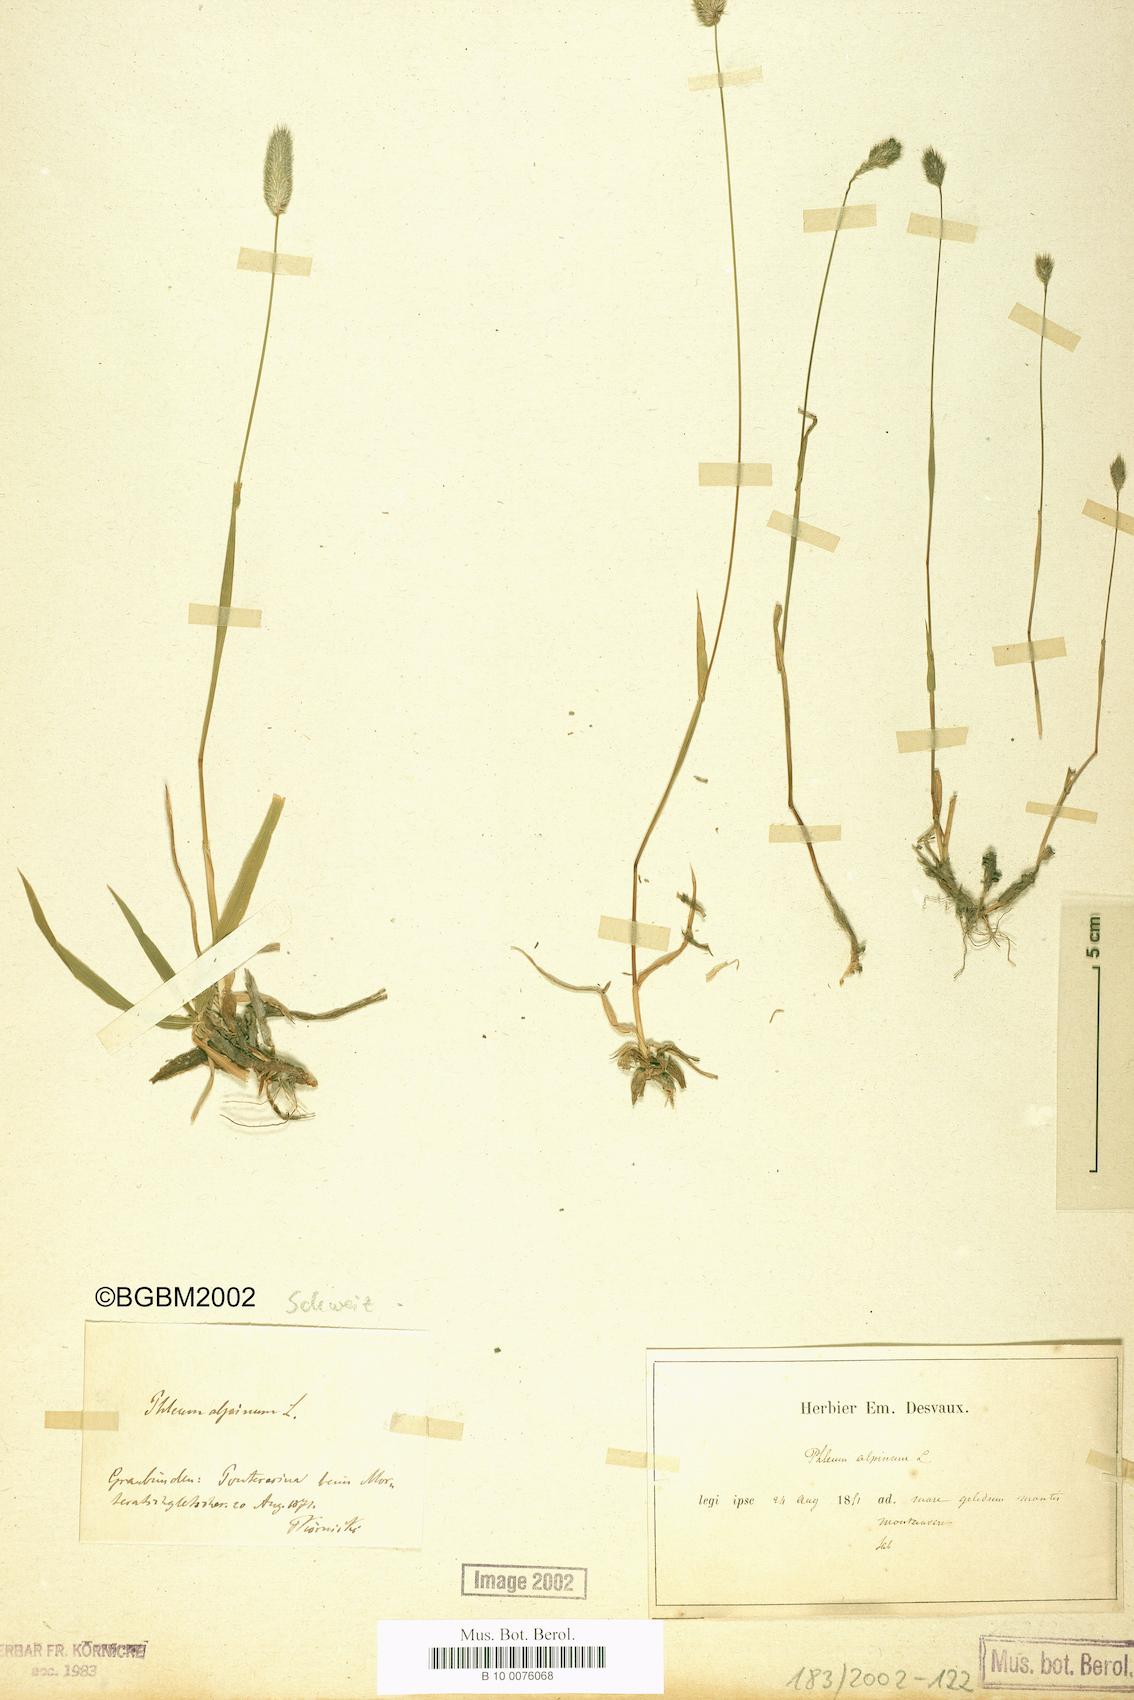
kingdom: Plantae
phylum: Tracheophyta
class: Liliopsida
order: Poales
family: Poaceae
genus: Phleum
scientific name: Phleum alpinum
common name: Alpine cat's-tail
